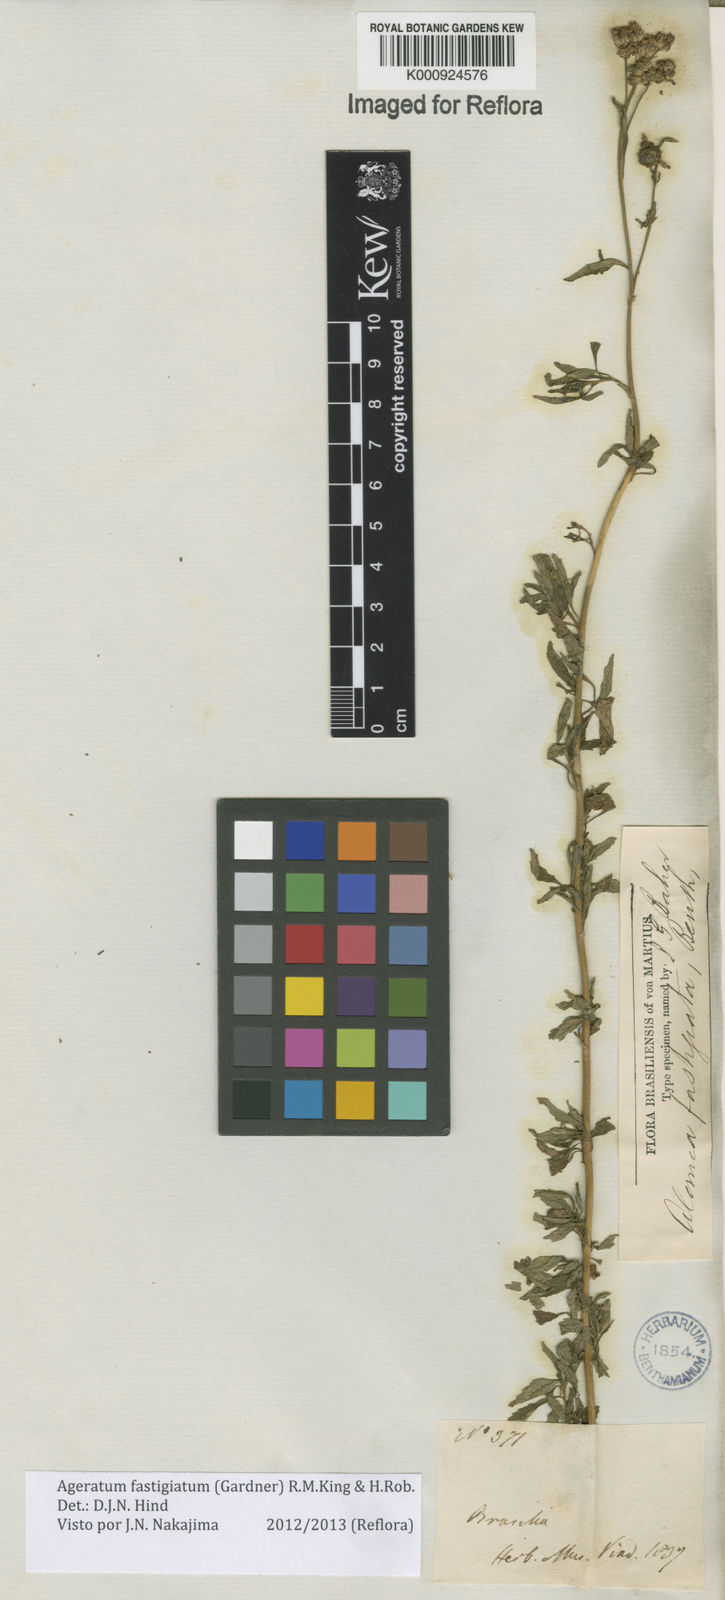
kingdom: Plantae
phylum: Tracheophyta
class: Magnoliopsida
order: Asterales
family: Asteraceae
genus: Ageratum
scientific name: Ageratum fastigiatum
